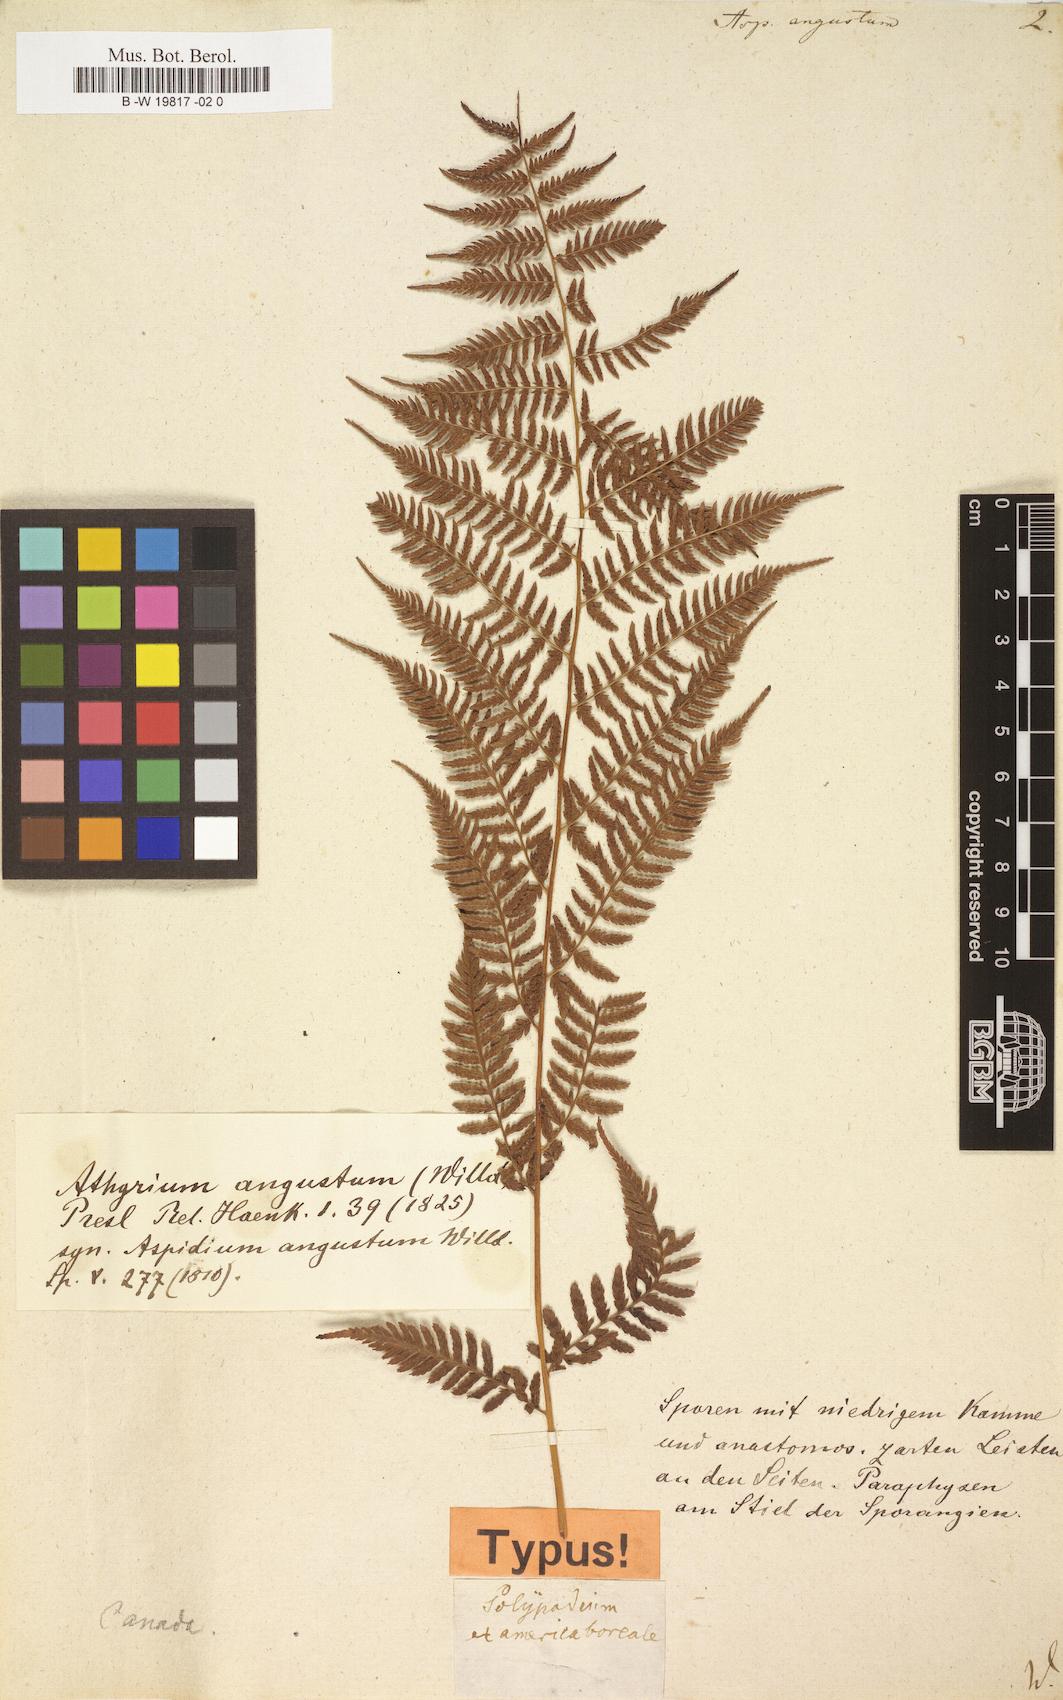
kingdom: Plantae
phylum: Tracheophyta
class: Polypodiopsida
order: Polypodiales
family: Athyriaceae
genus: Athyrium
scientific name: Athyrium angustum
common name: Northern lady fern
